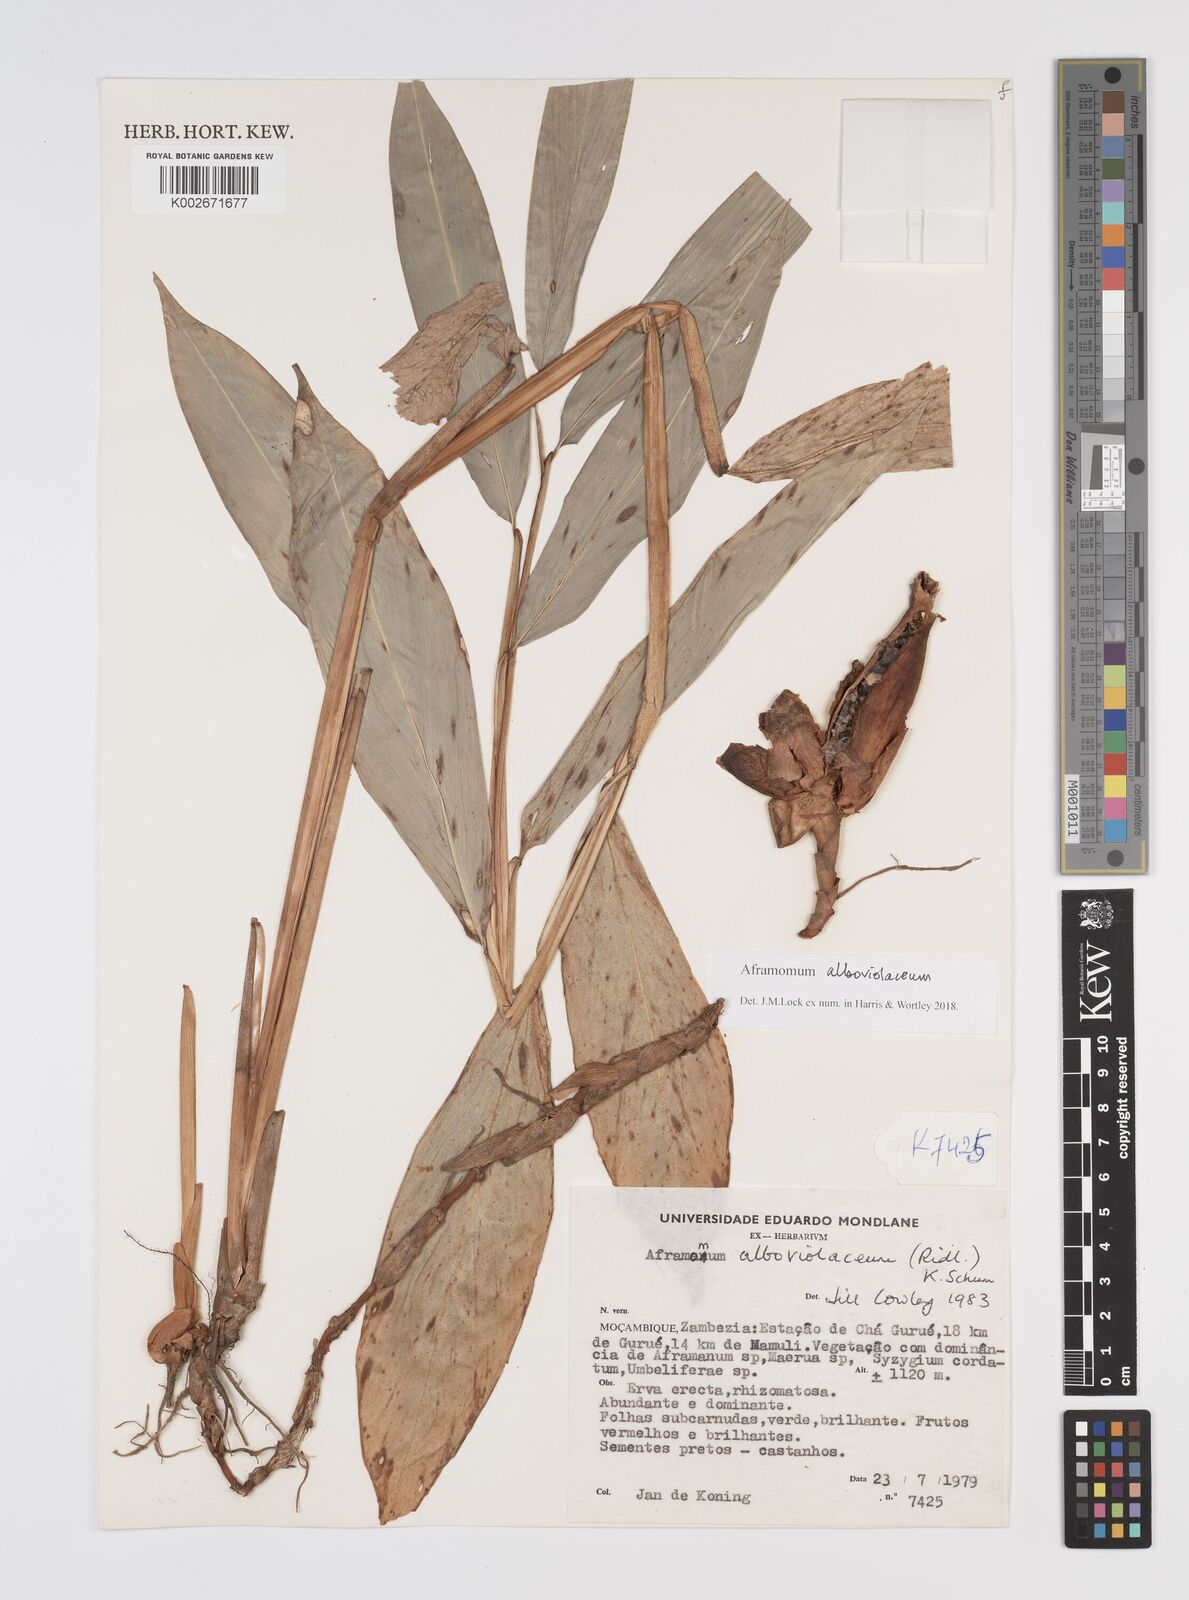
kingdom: Plantae
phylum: Tracheophyta
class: Liliopsida
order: Zingiberales
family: Zingiberaceae
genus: Aframomum
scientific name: Aframomum alboviolaceum
